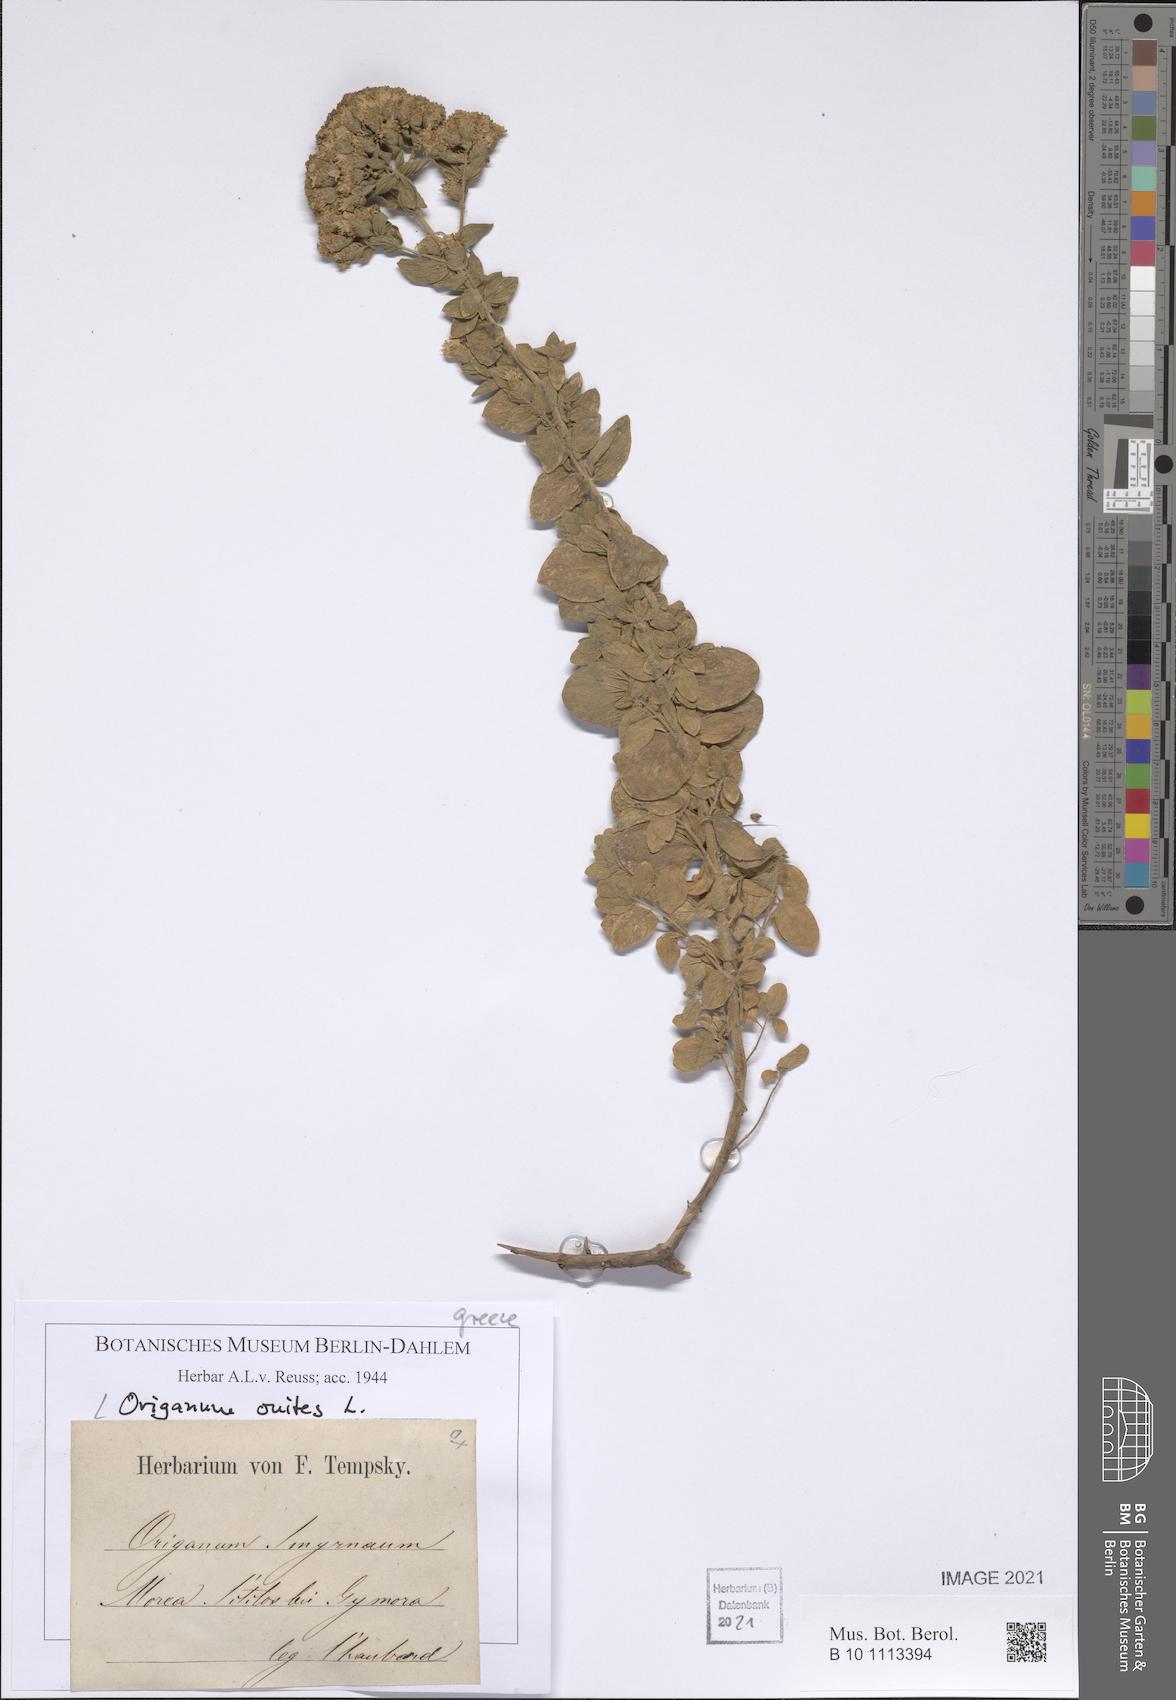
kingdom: Plantae
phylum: Tracheophyta
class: Magnoliopsida
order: Lamiales
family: Lamiaceae
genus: Origanum
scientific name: Origanum onites
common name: Turkish oregano
